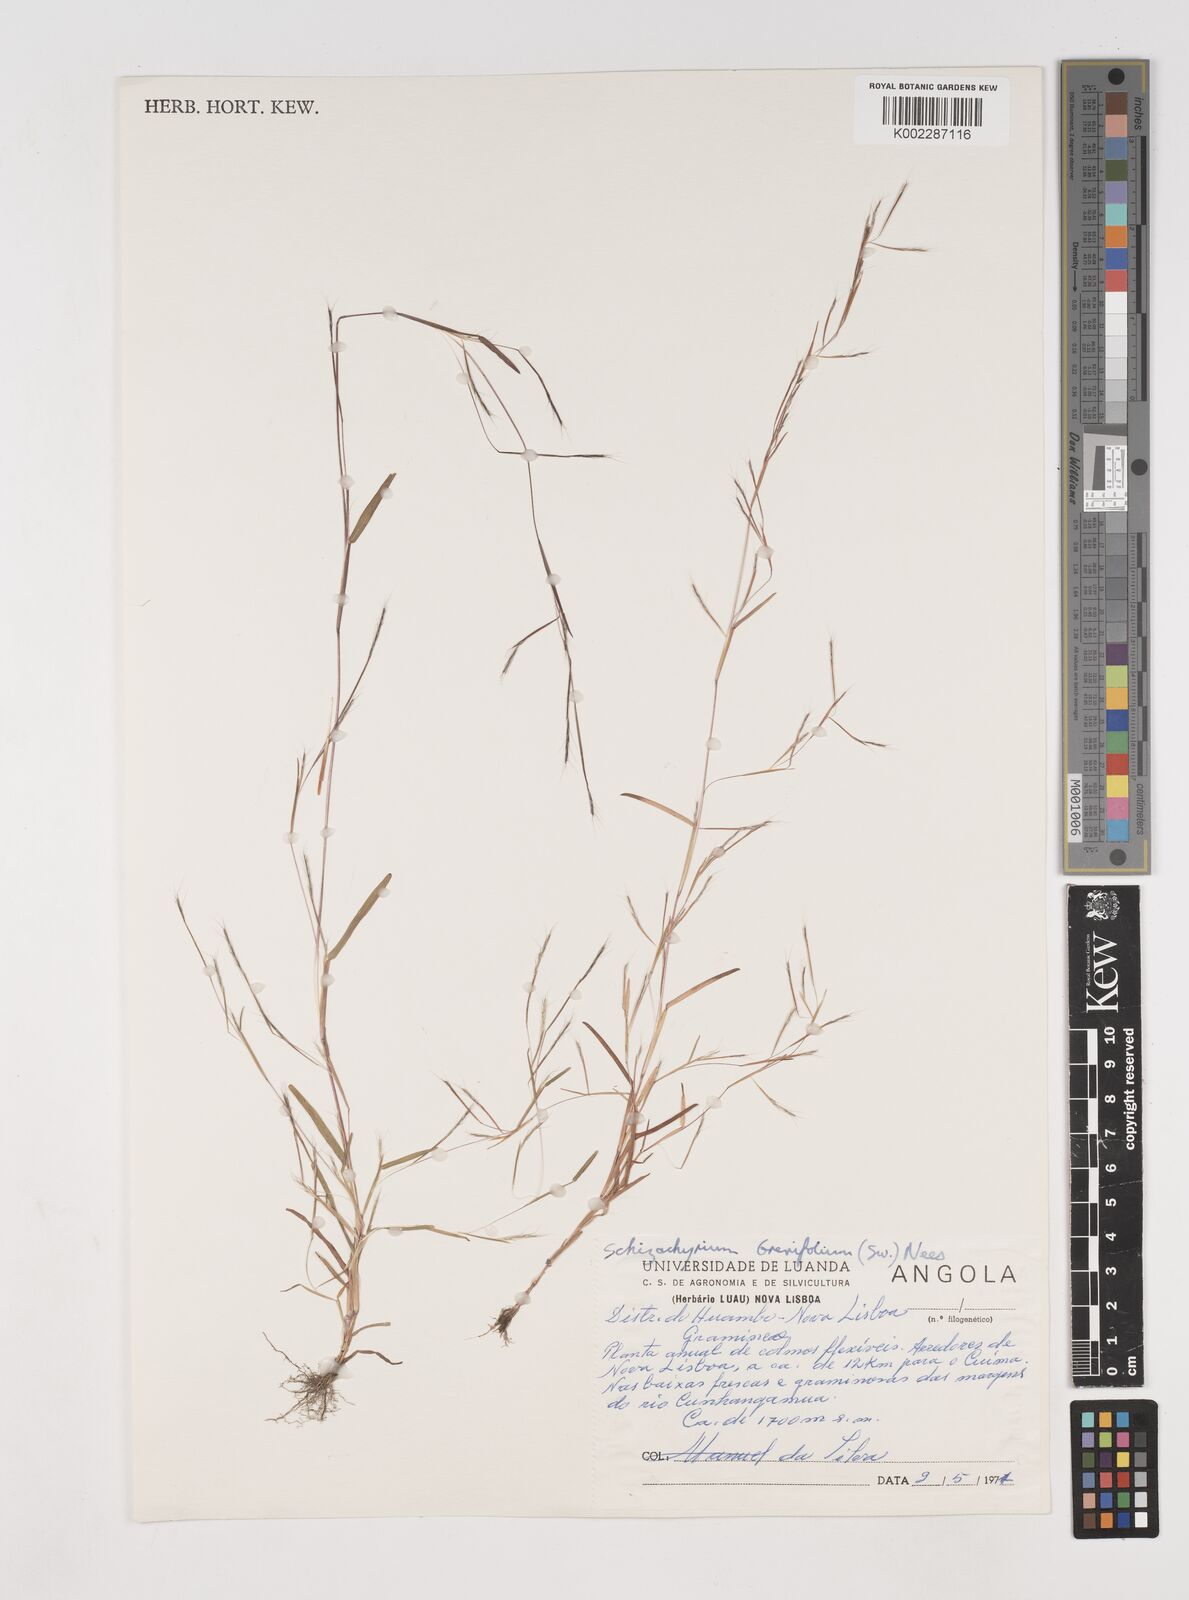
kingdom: Plantae
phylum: Tracheophyta
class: Liliopsida
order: Poales
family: Poaceae
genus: Schizachyrium
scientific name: Schizachyrium brevifolium
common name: Serillo dulce
